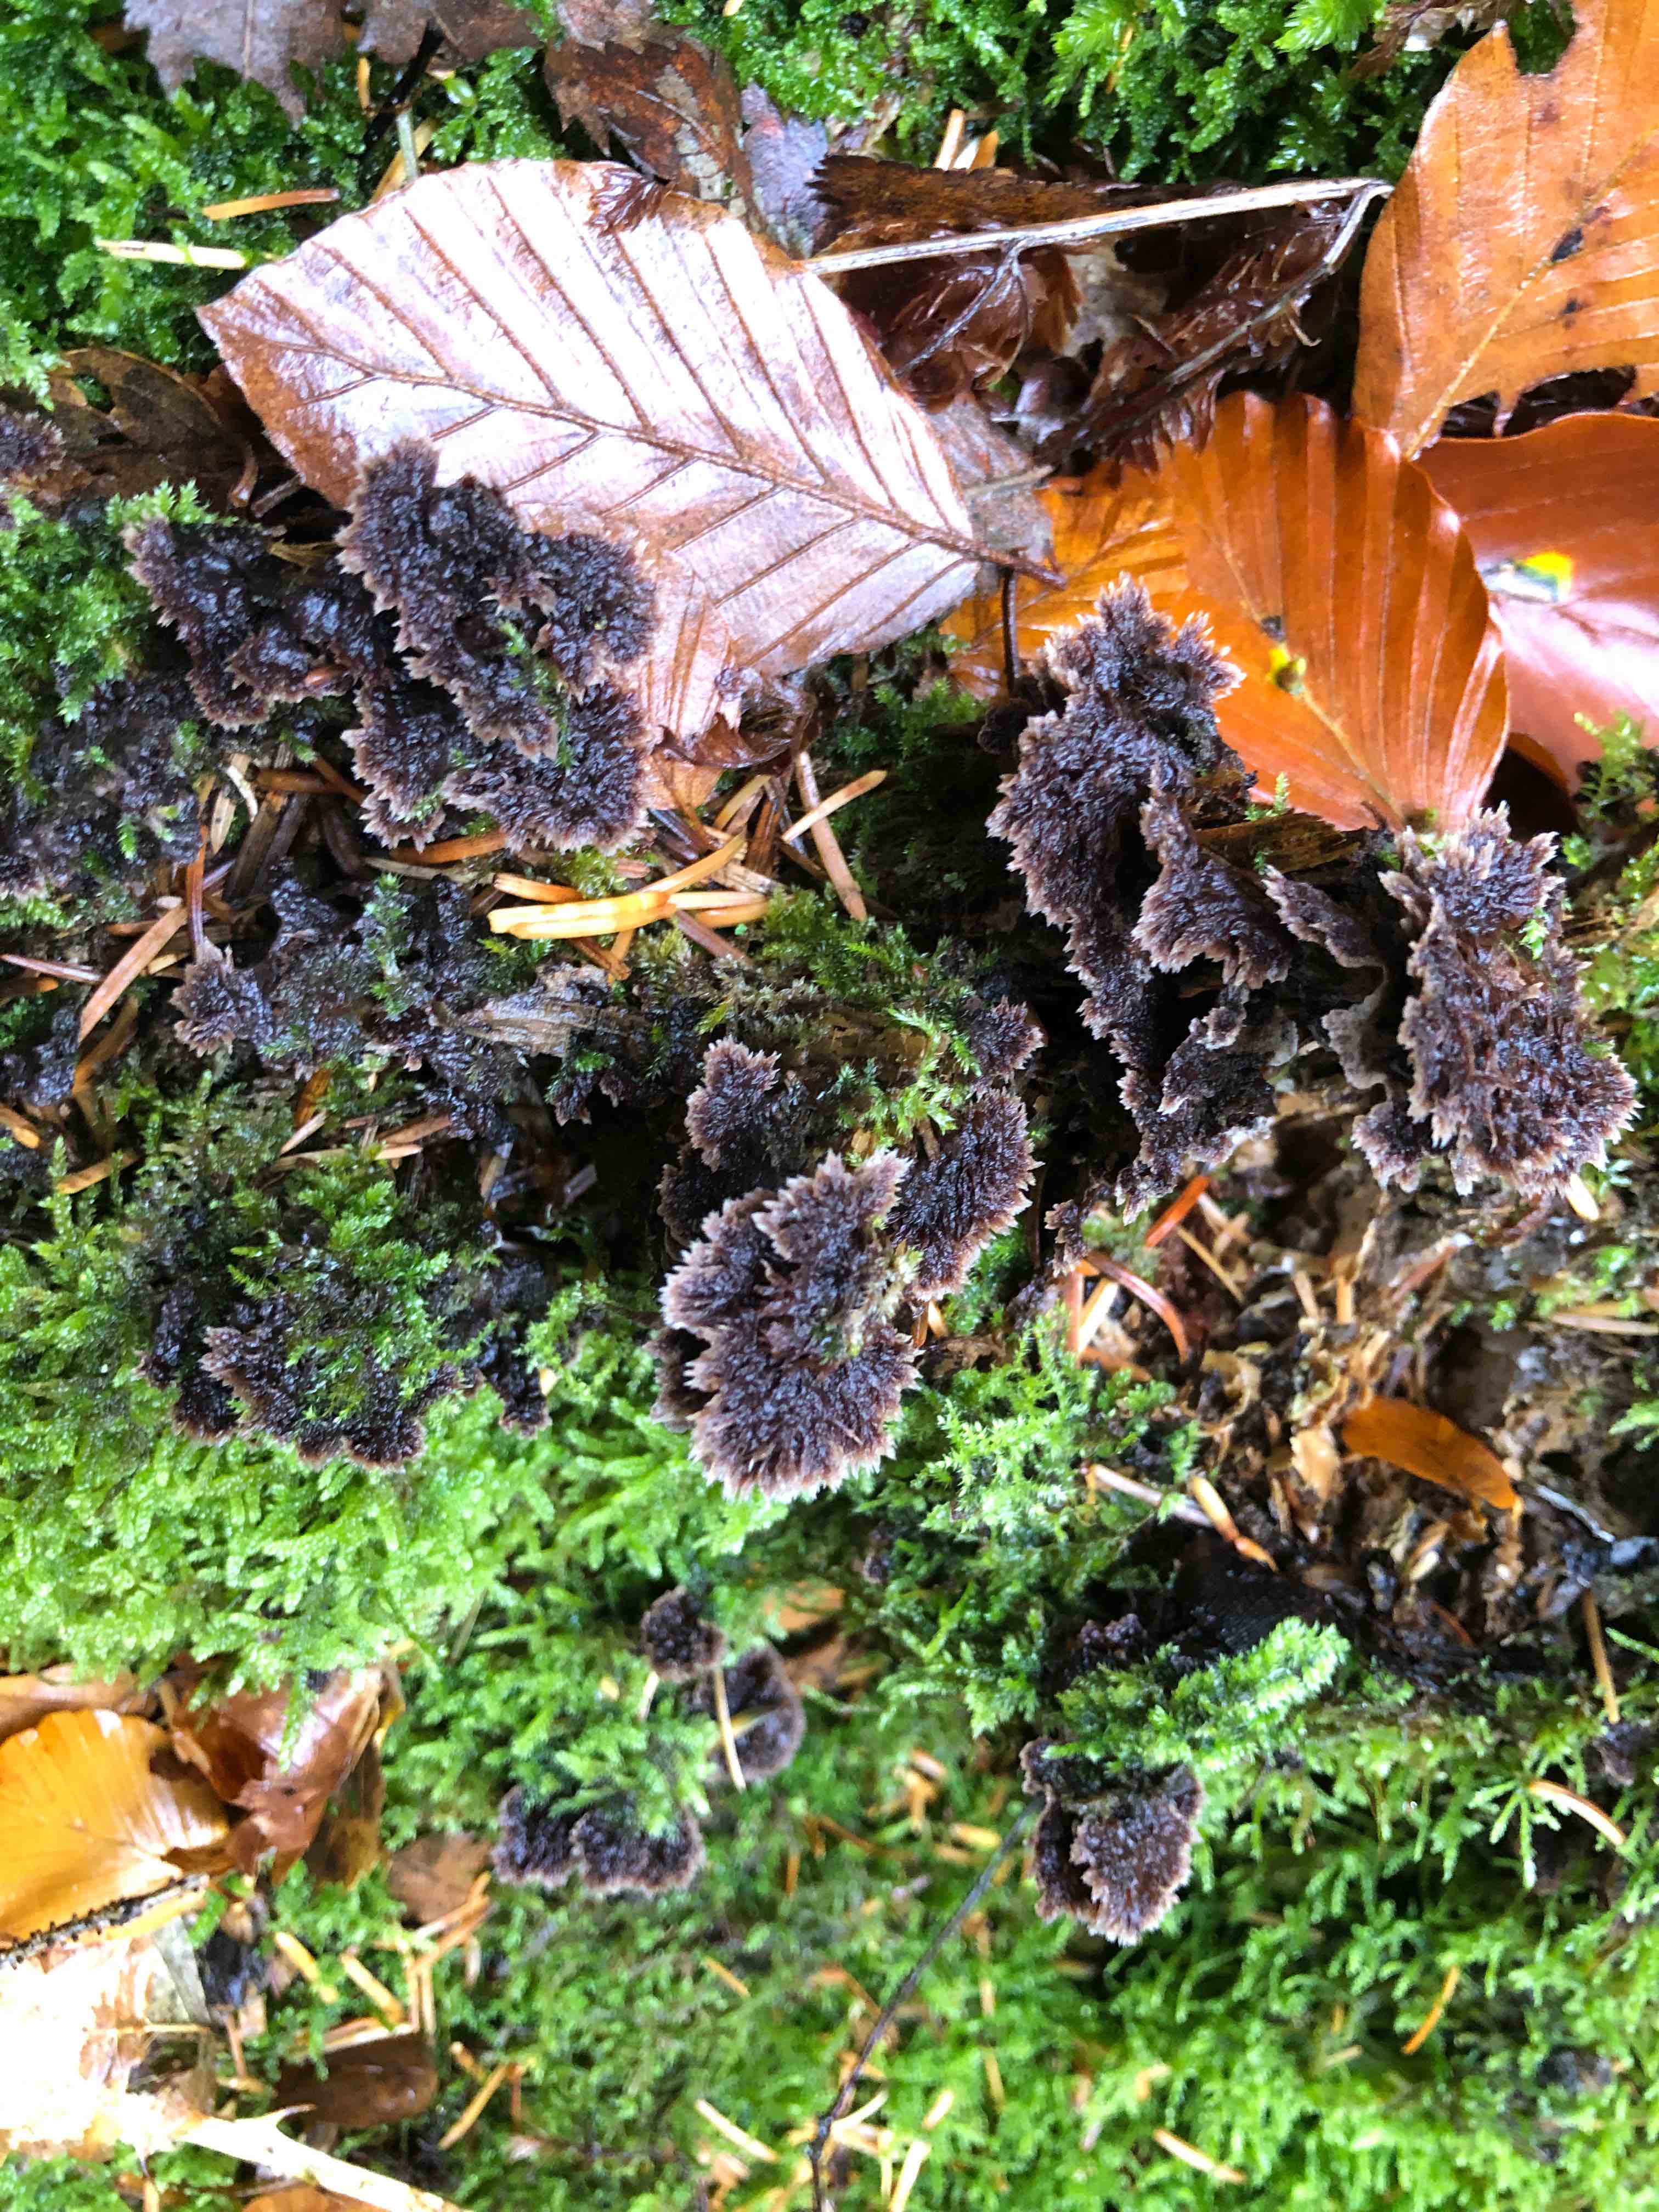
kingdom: Fungi
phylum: Basidiomycota
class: Agaricomycetes
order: Thelephorales
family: Thelephoraceae
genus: Thelephora
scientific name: Thelephora terrestris
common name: fliget frynsesvamp
